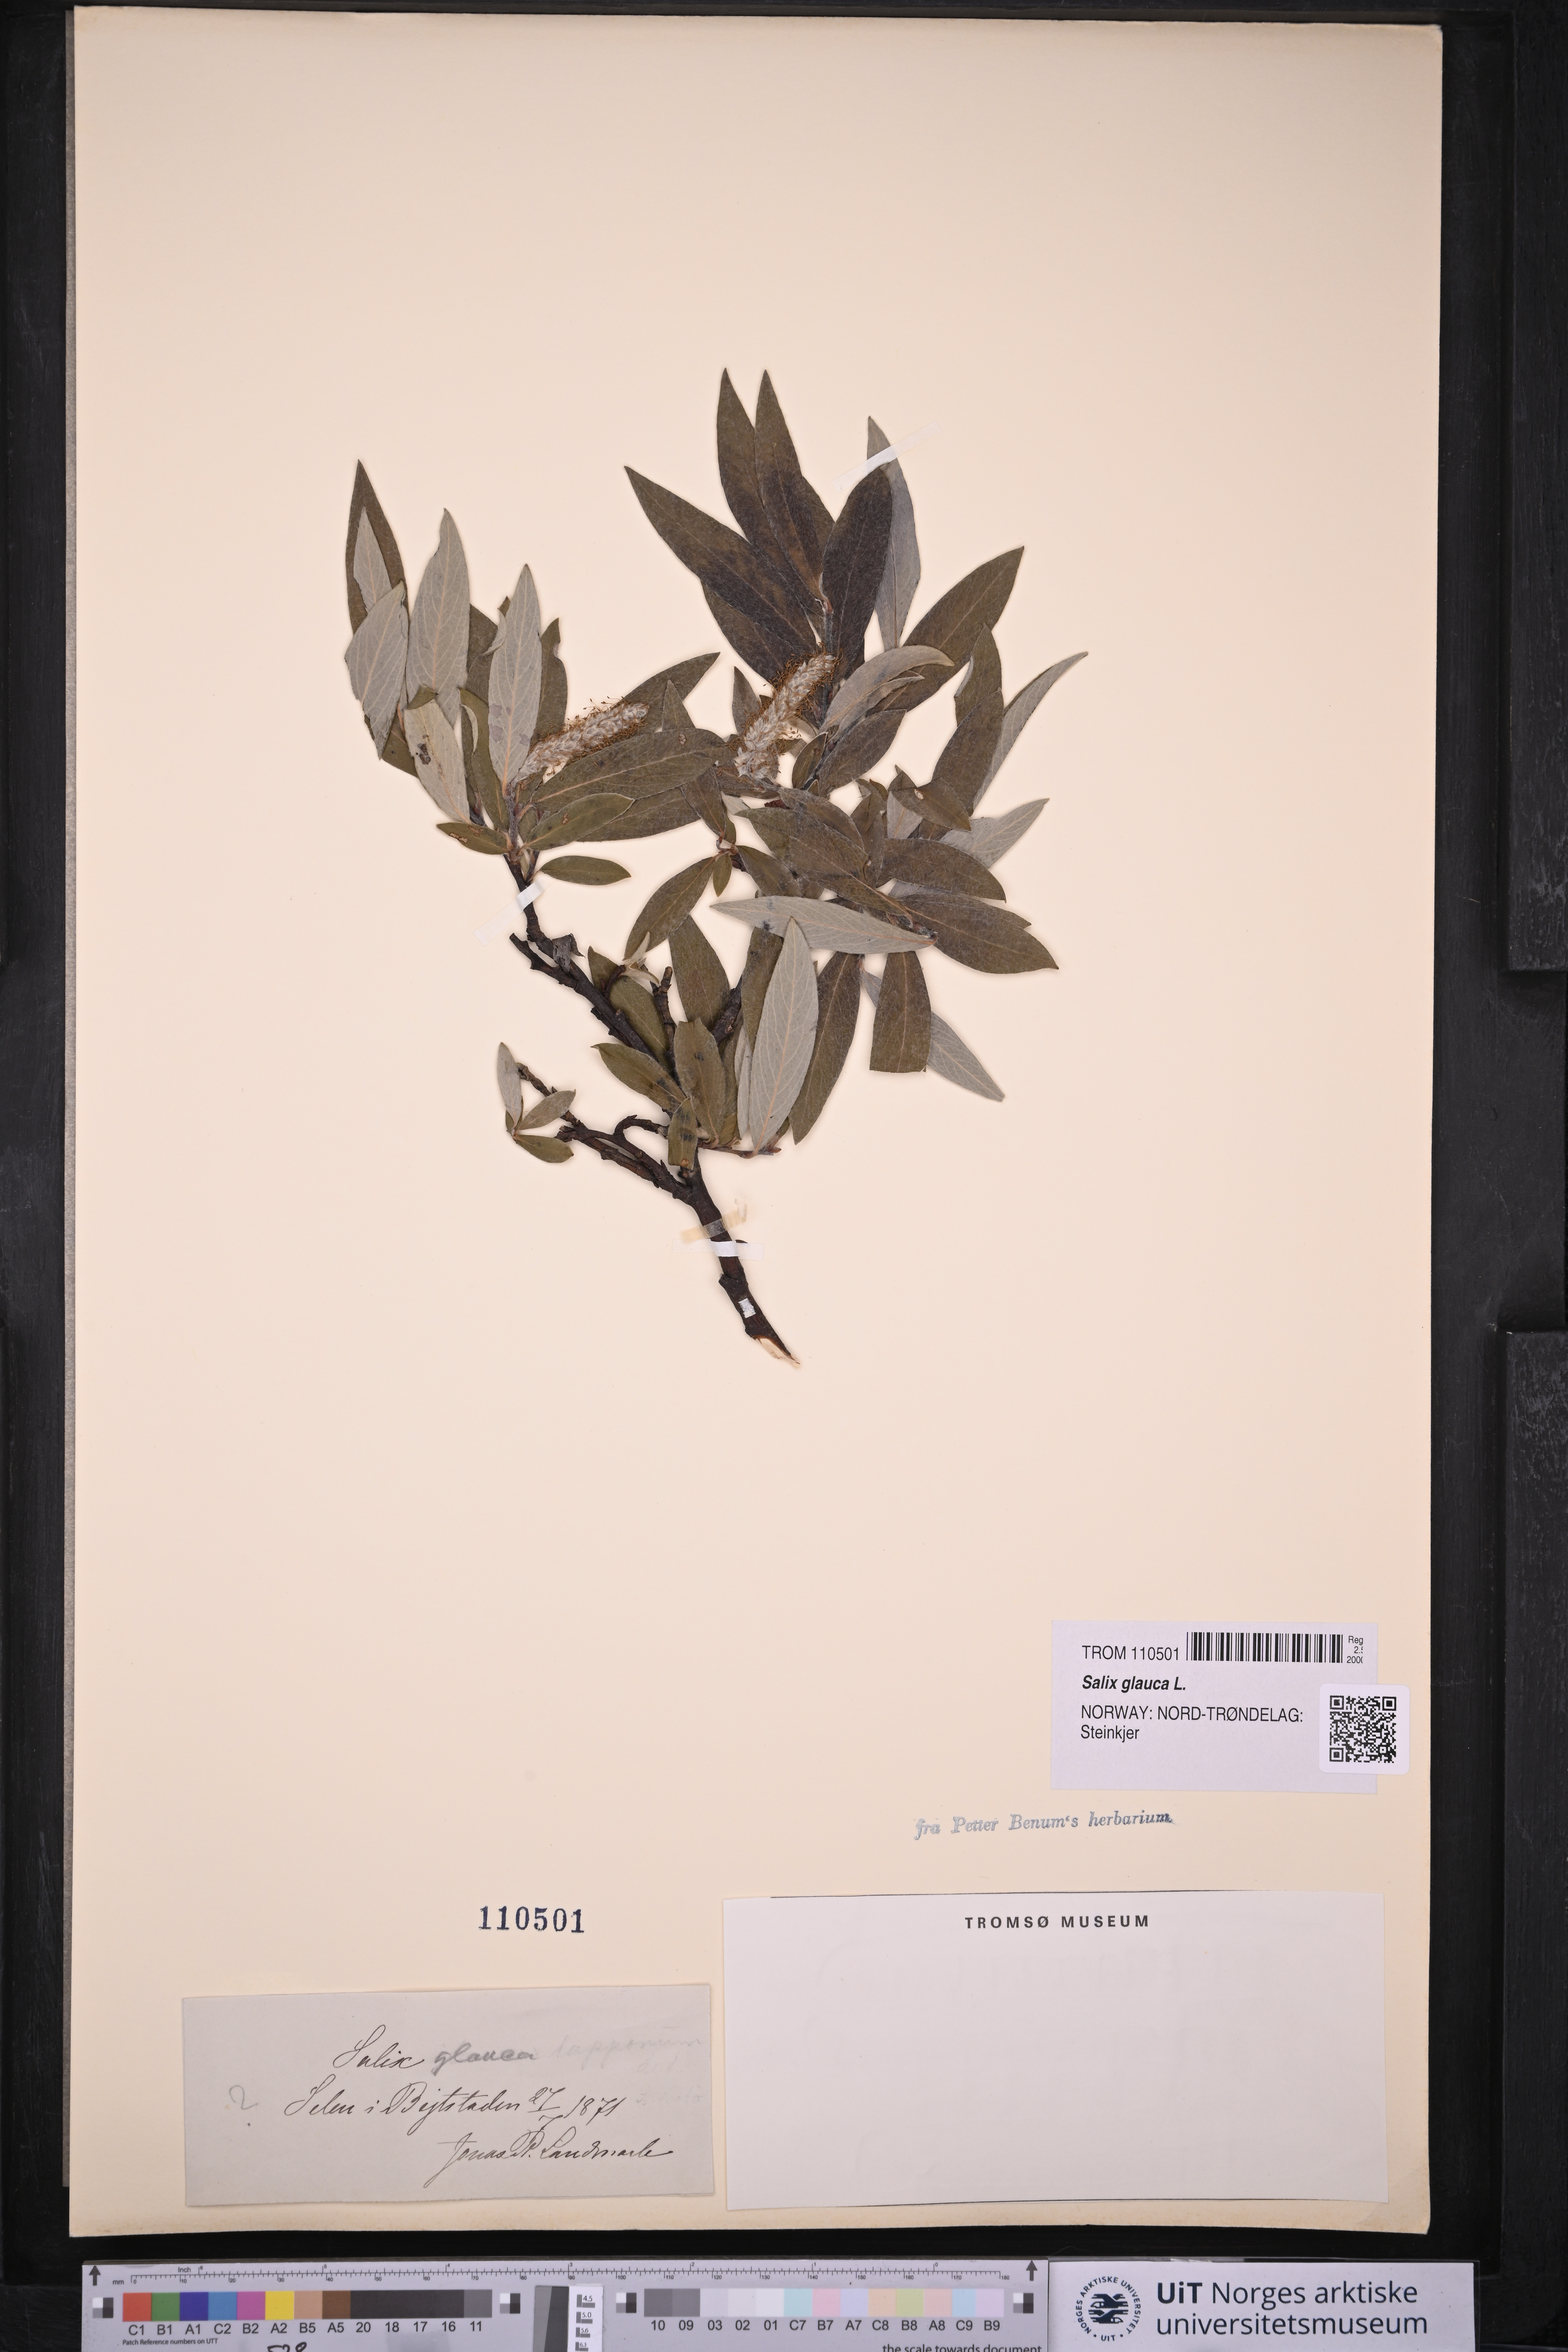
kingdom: Plantae
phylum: Tracheophyta
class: Magnoliopsida
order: Malpighiales
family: Salicaceae
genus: Salix
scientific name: Salix glauca
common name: Glaucous willow
